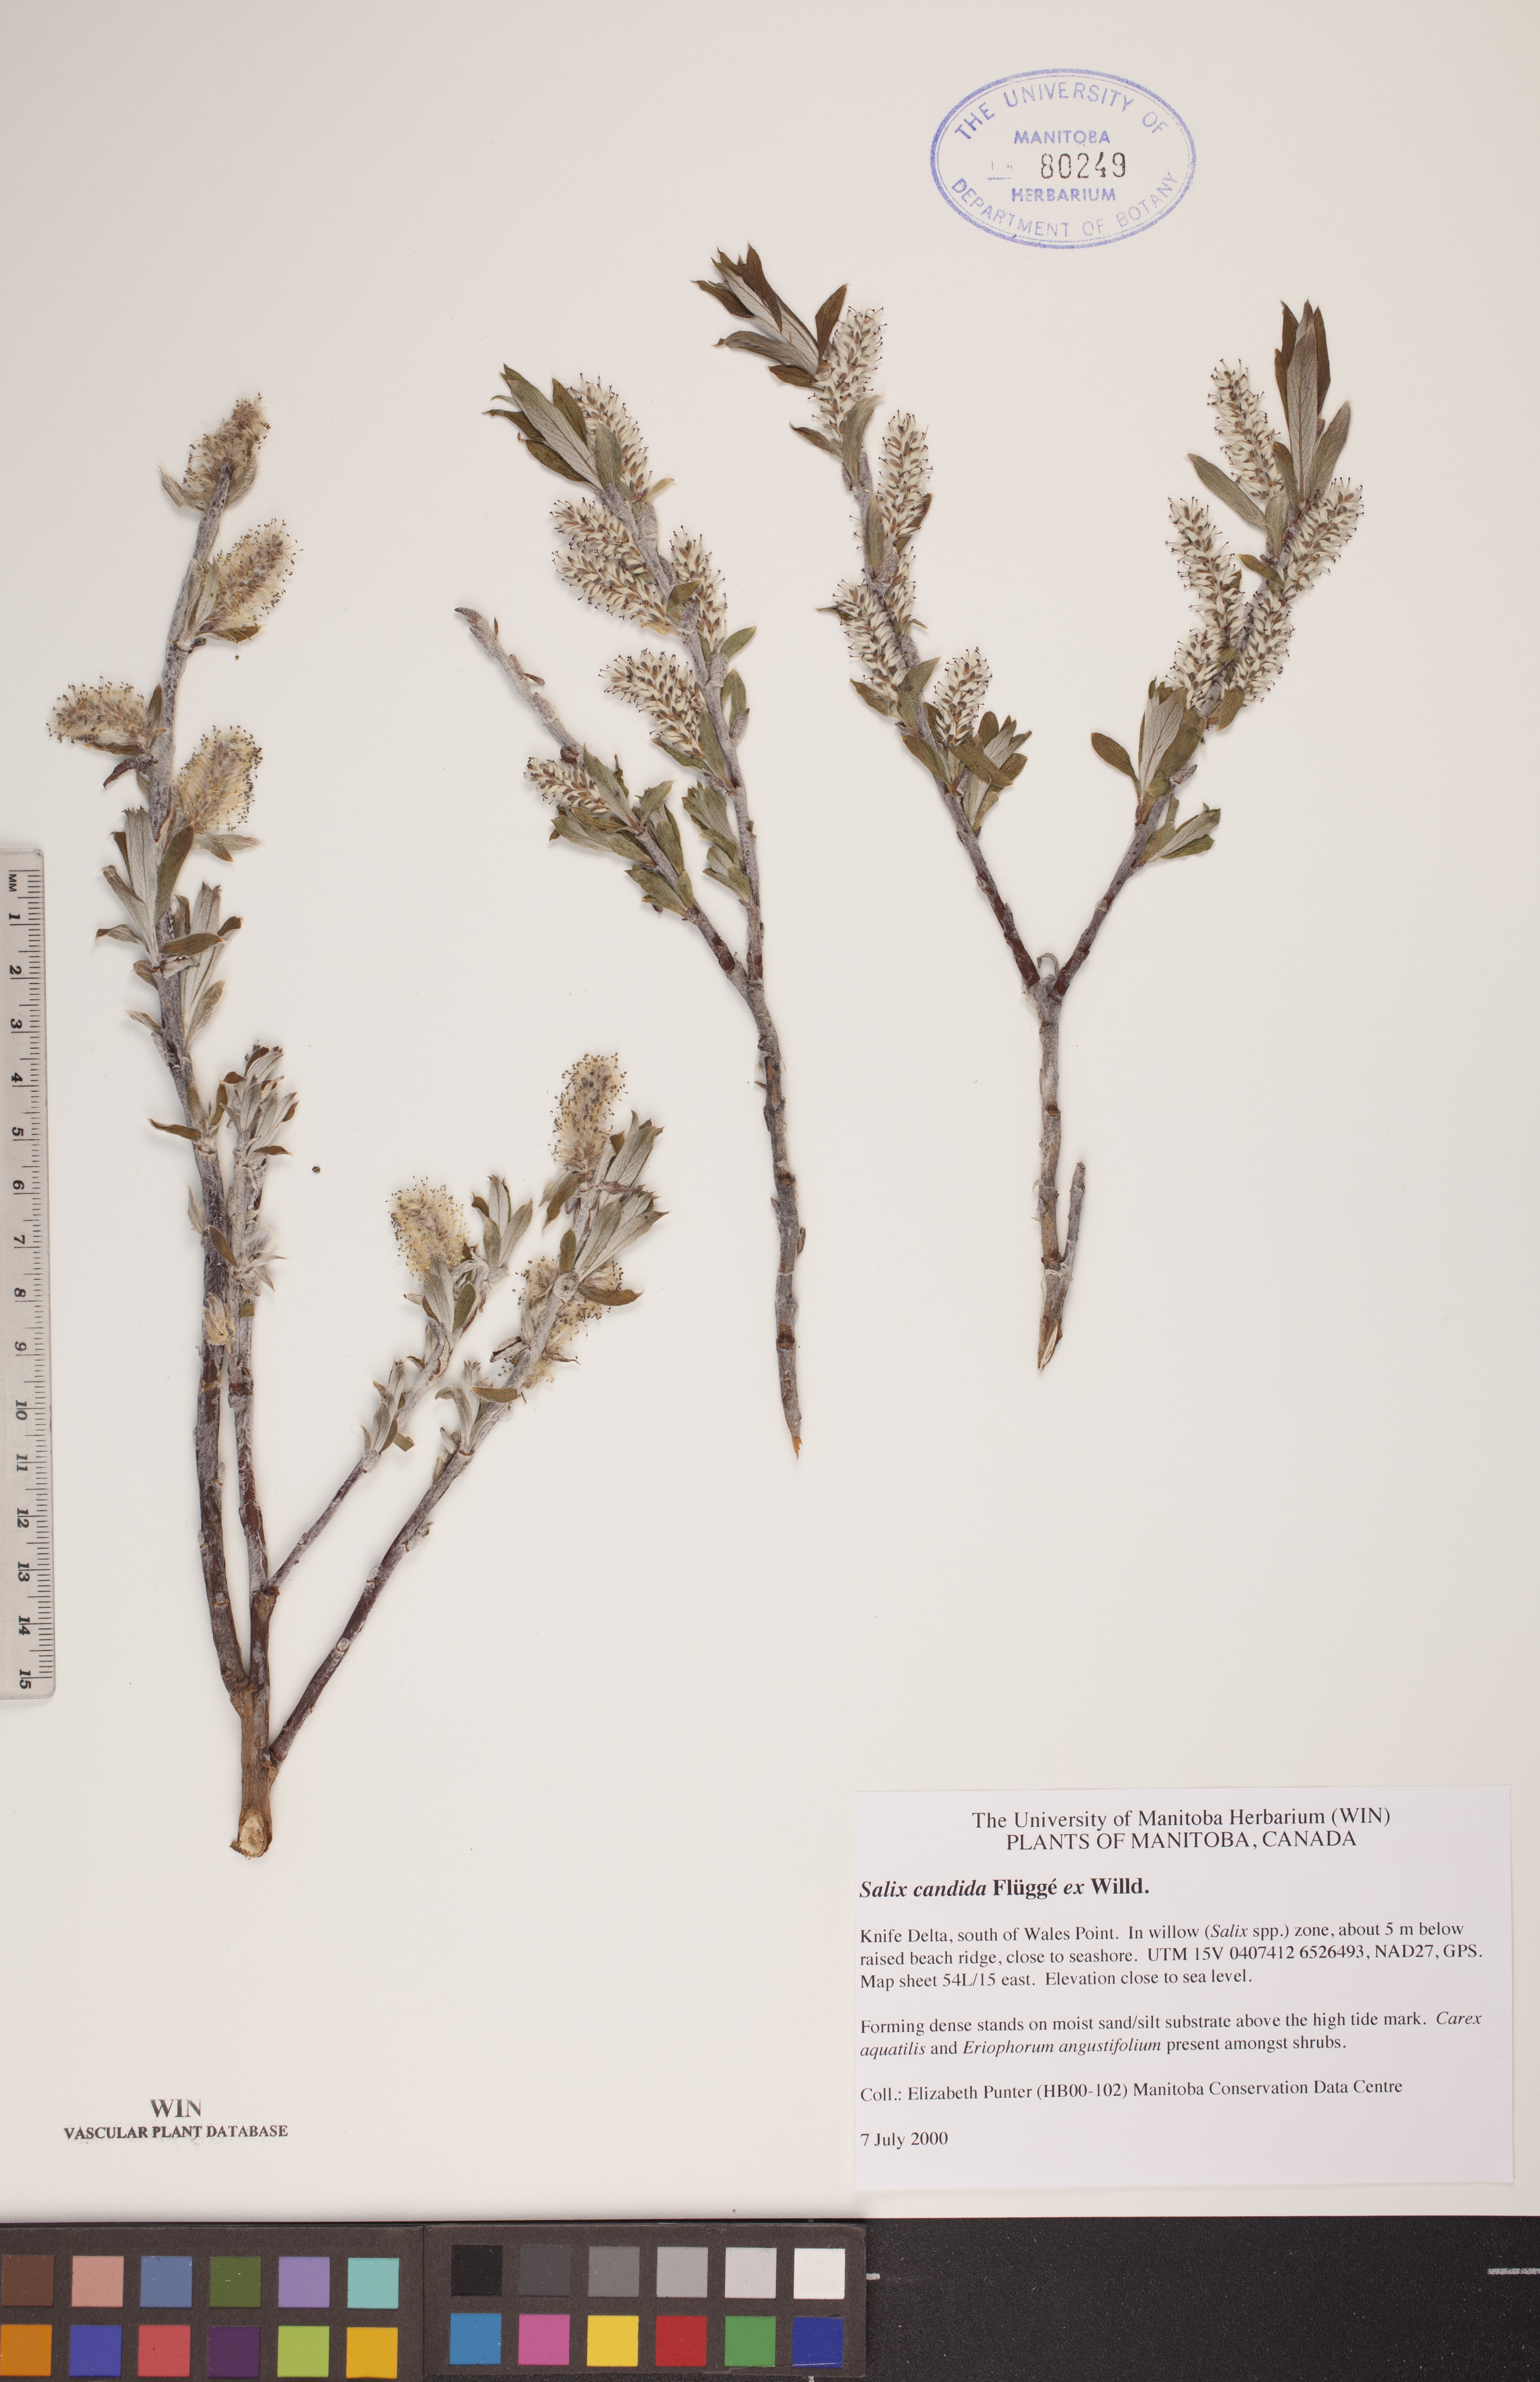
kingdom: Plantae
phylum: Tracheophyta
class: Magnoliopsida
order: Malpighiales
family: Salicaceae
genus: Salix
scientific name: Salix candida
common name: Hoary willow
